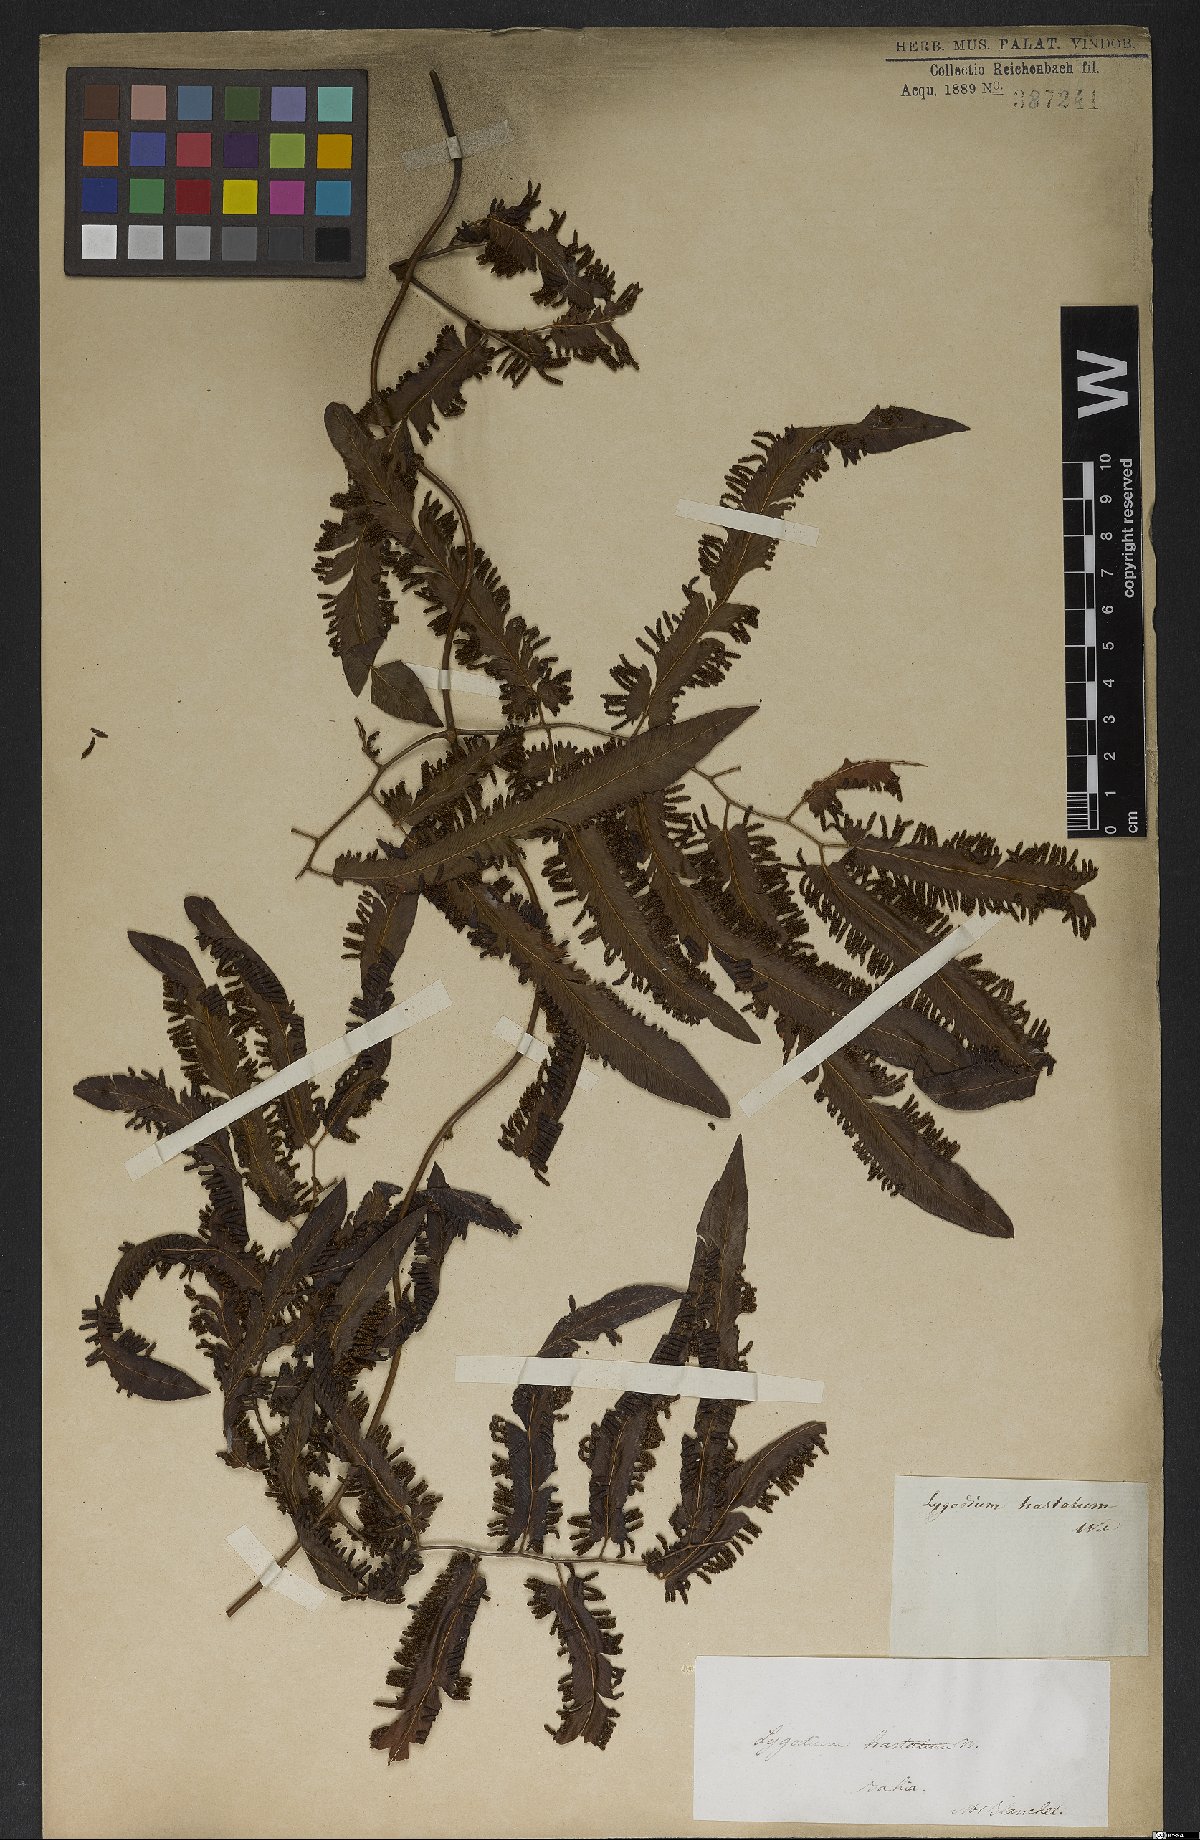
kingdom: Plantae
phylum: Tracheophyta
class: Polypodiopsida
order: Schizaeales
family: Lygodiaceae
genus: Lygodium
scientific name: Lygodium volubile
